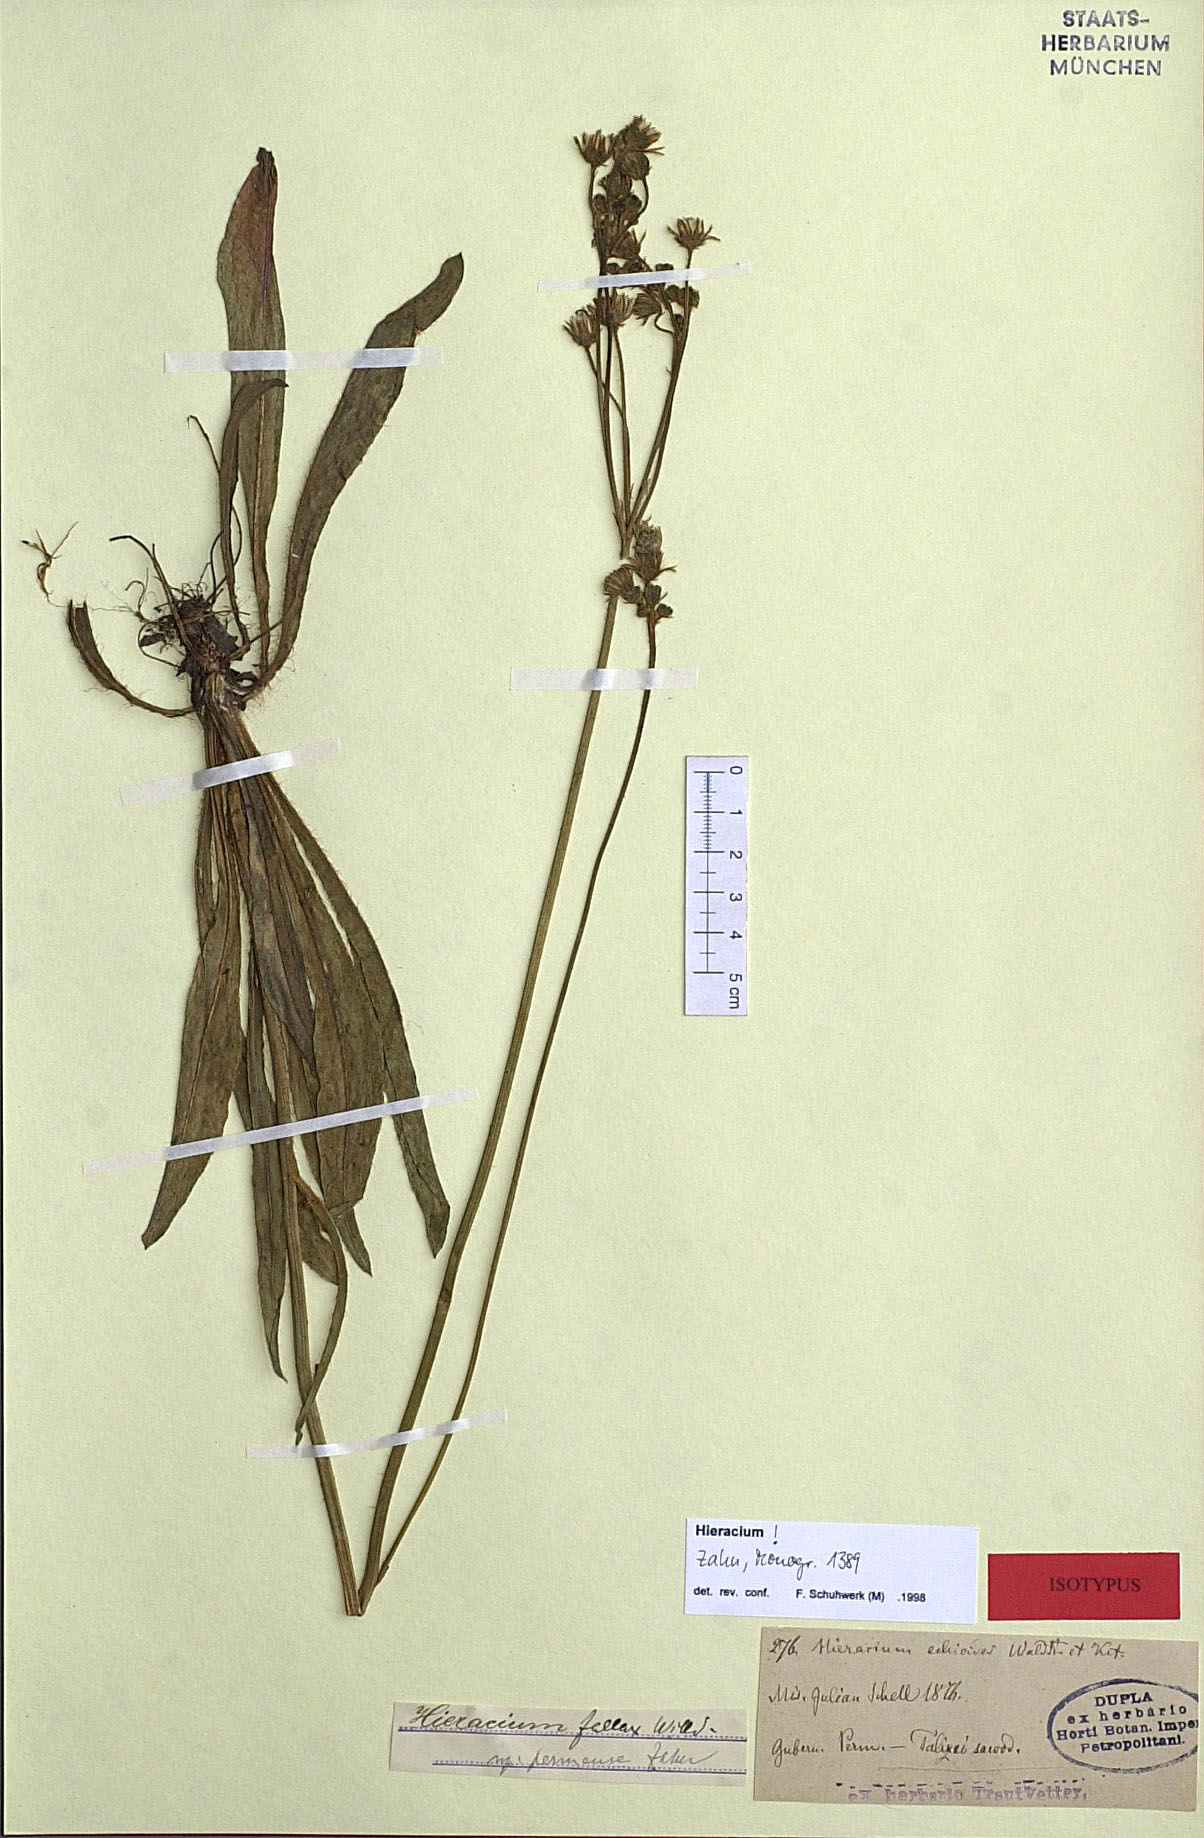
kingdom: Plantae
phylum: Tracheophyta
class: Magnoliopsida
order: Asterales
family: Asteraceae
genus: Pilosella
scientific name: Pilosella fallax
